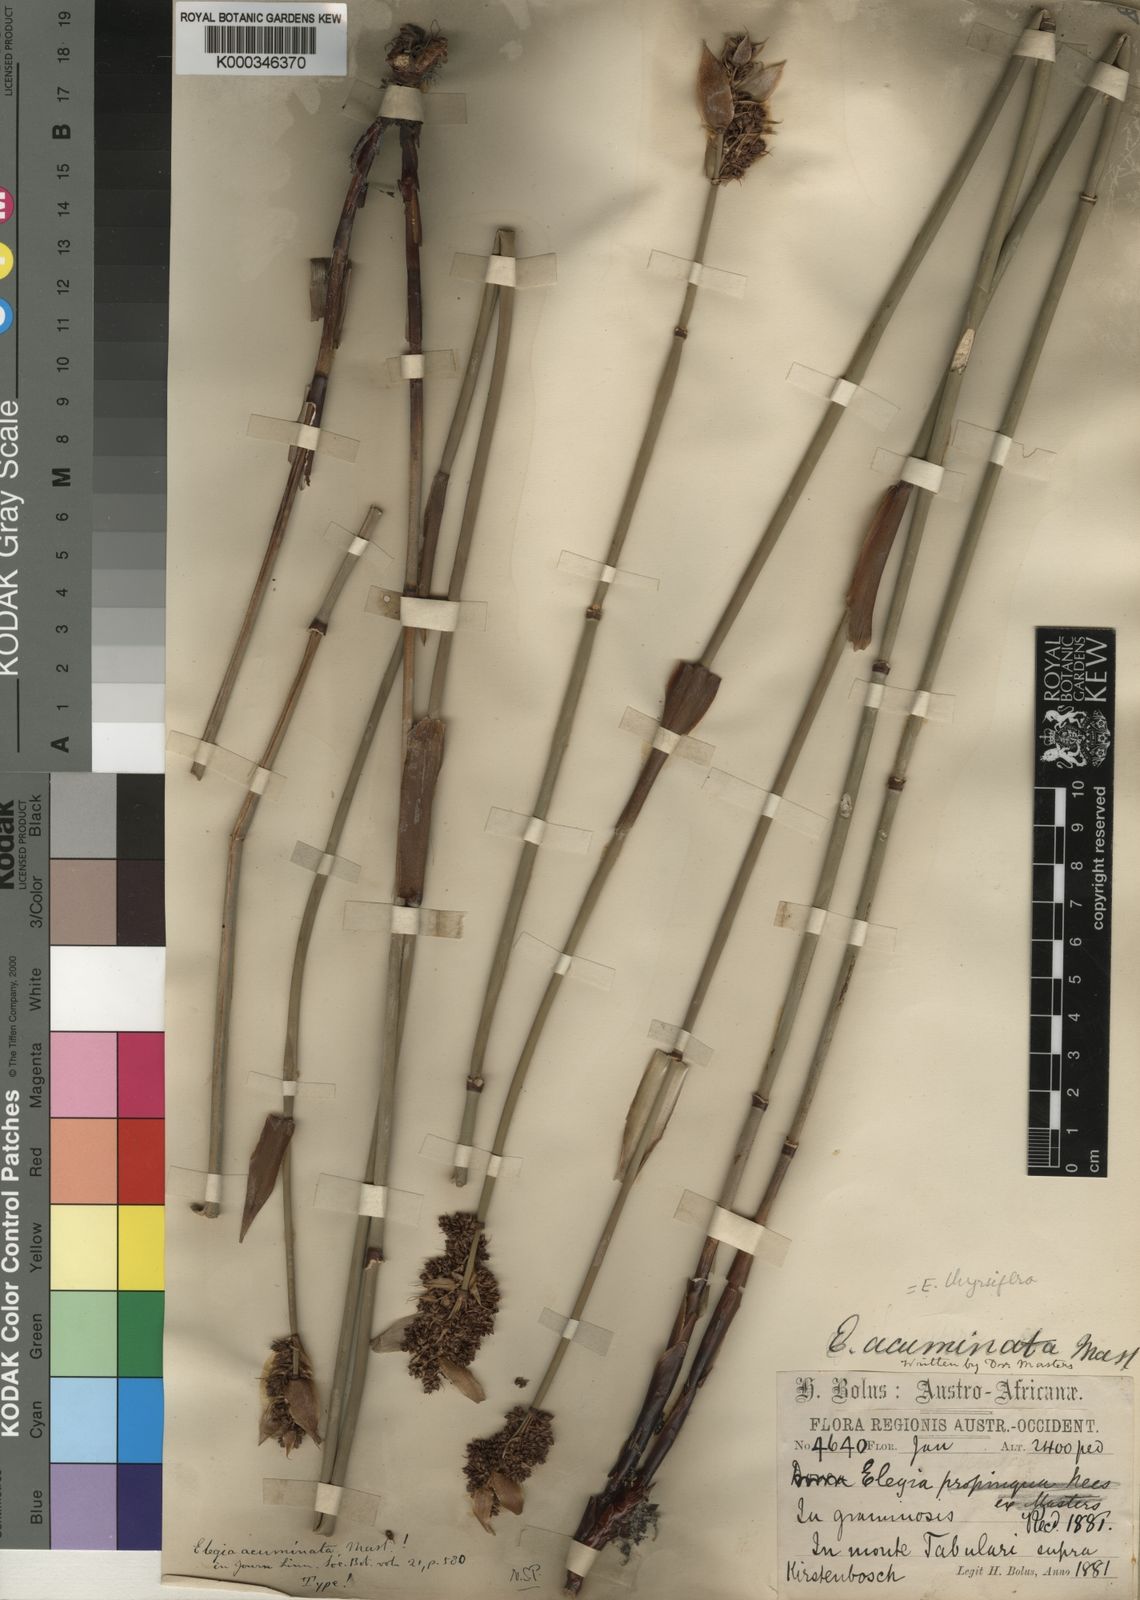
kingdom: Plantae
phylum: Tracheophyta
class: Liliopsida
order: Poales
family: Restionaceae
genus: Elegia
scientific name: Elegia thyrsifera
